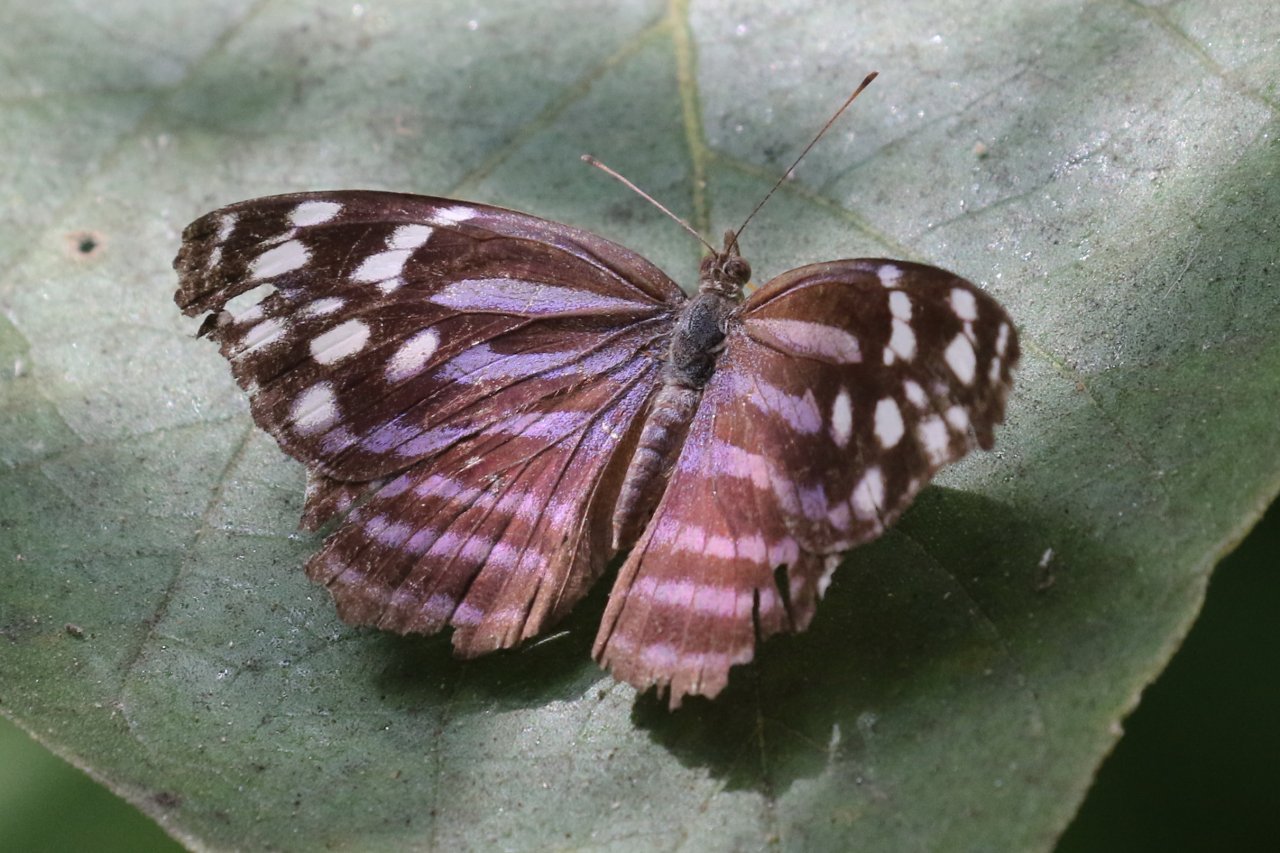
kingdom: Animalia
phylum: Arthropoda
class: Insecta
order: Lepidoptera
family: Nymphalidae
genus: Myscelia
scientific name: Myscelia ethusa
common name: Mexican Bluewing
